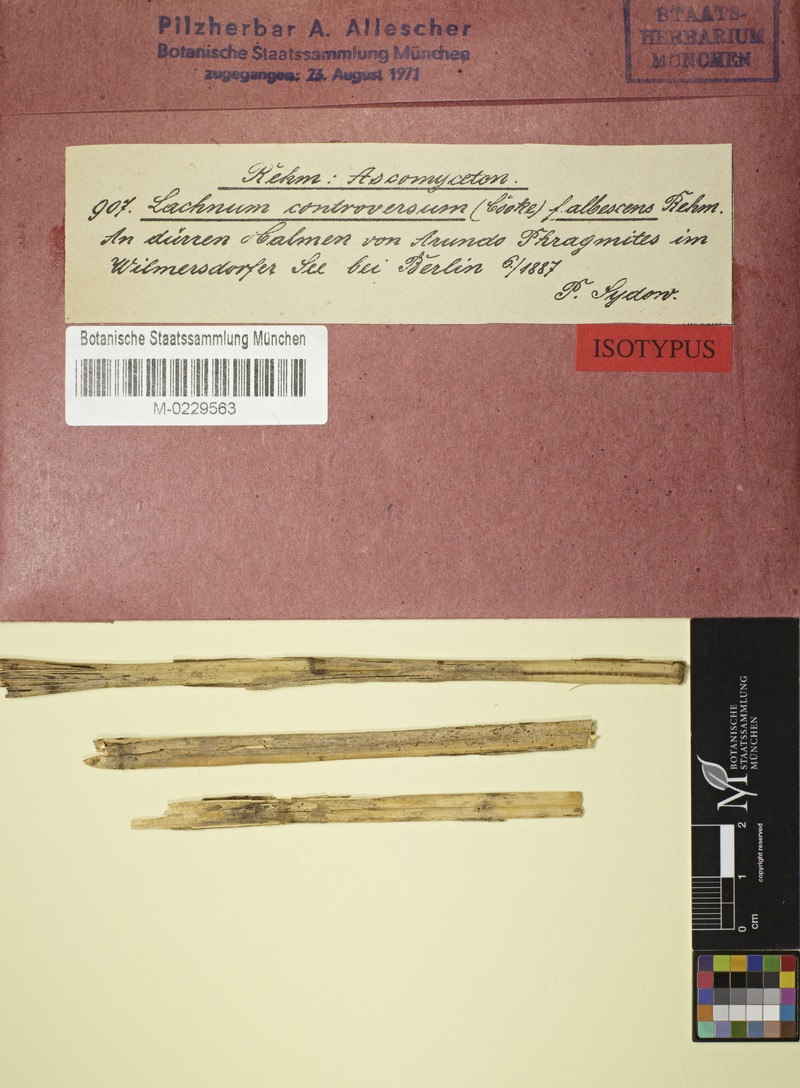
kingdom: Fungi
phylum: Ascomycota
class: Leotiomycetes
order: Helotiales
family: Lachnaceae
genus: Lachnum
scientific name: Lachnum controversum
